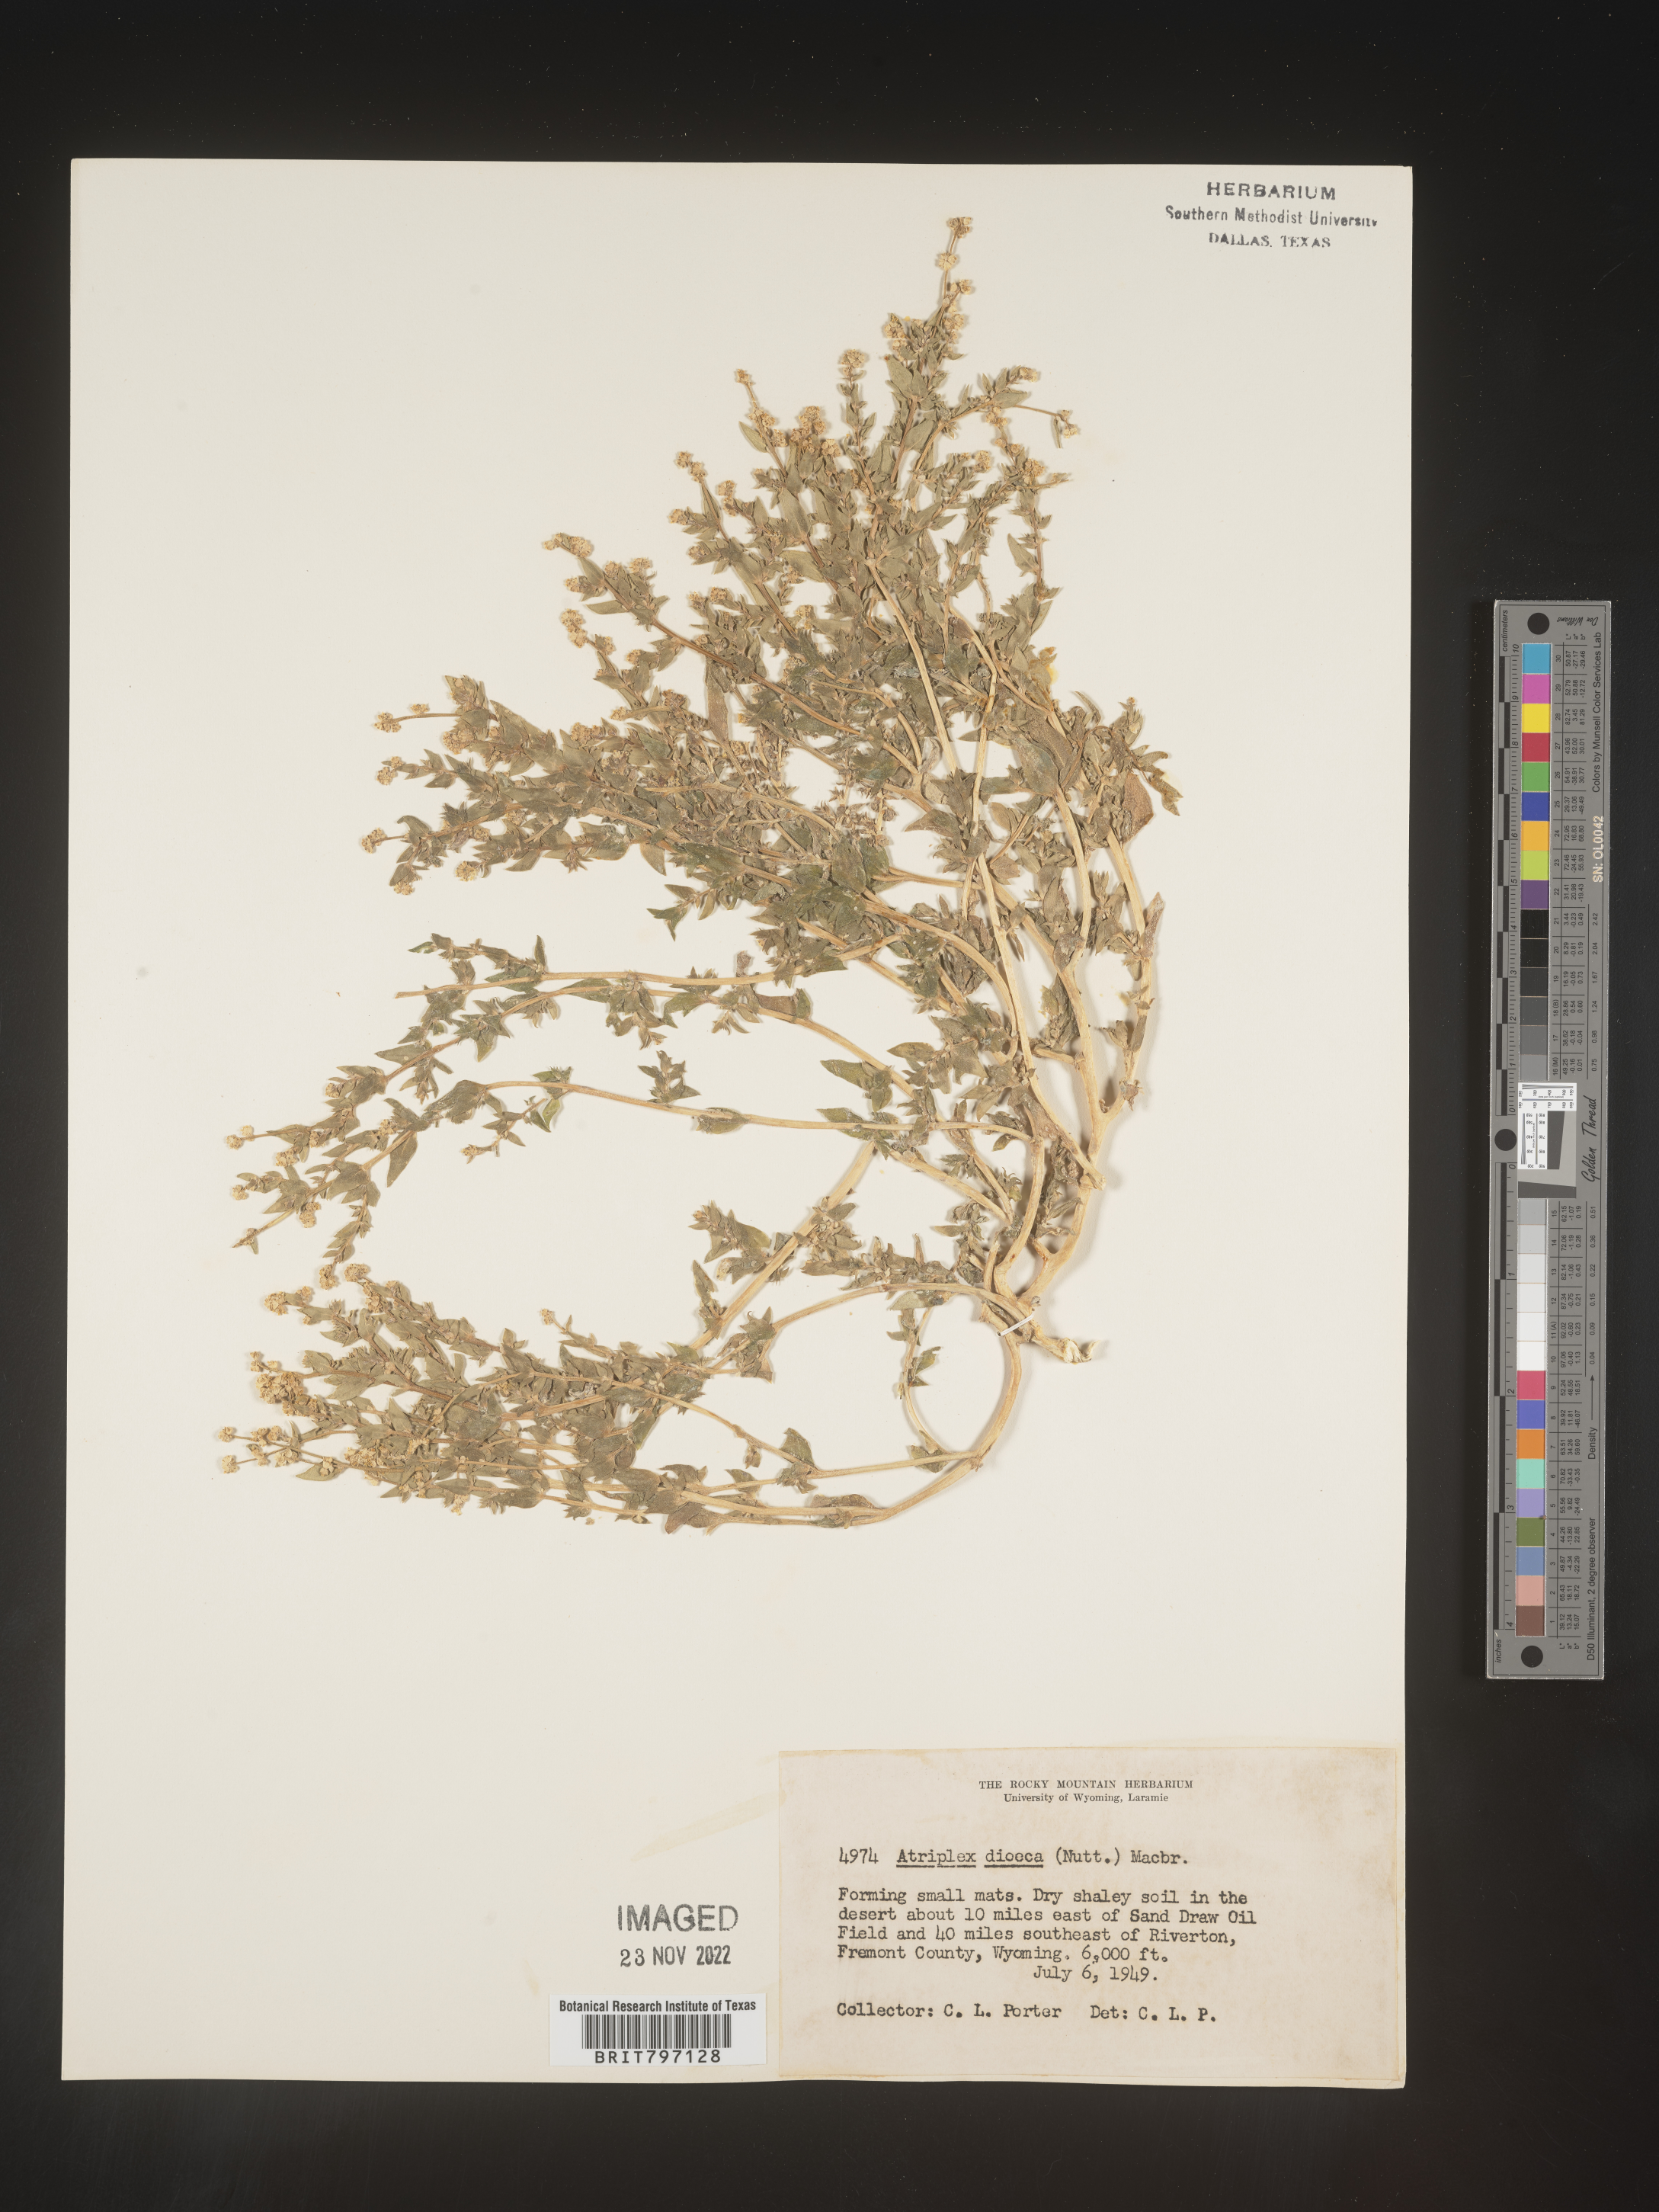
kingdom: Plantae
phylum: Tracheophyta
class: Magnoliopsida
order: Caryophyllales
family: Amaranthaceae
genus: Atriplex
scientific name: Atriplex
